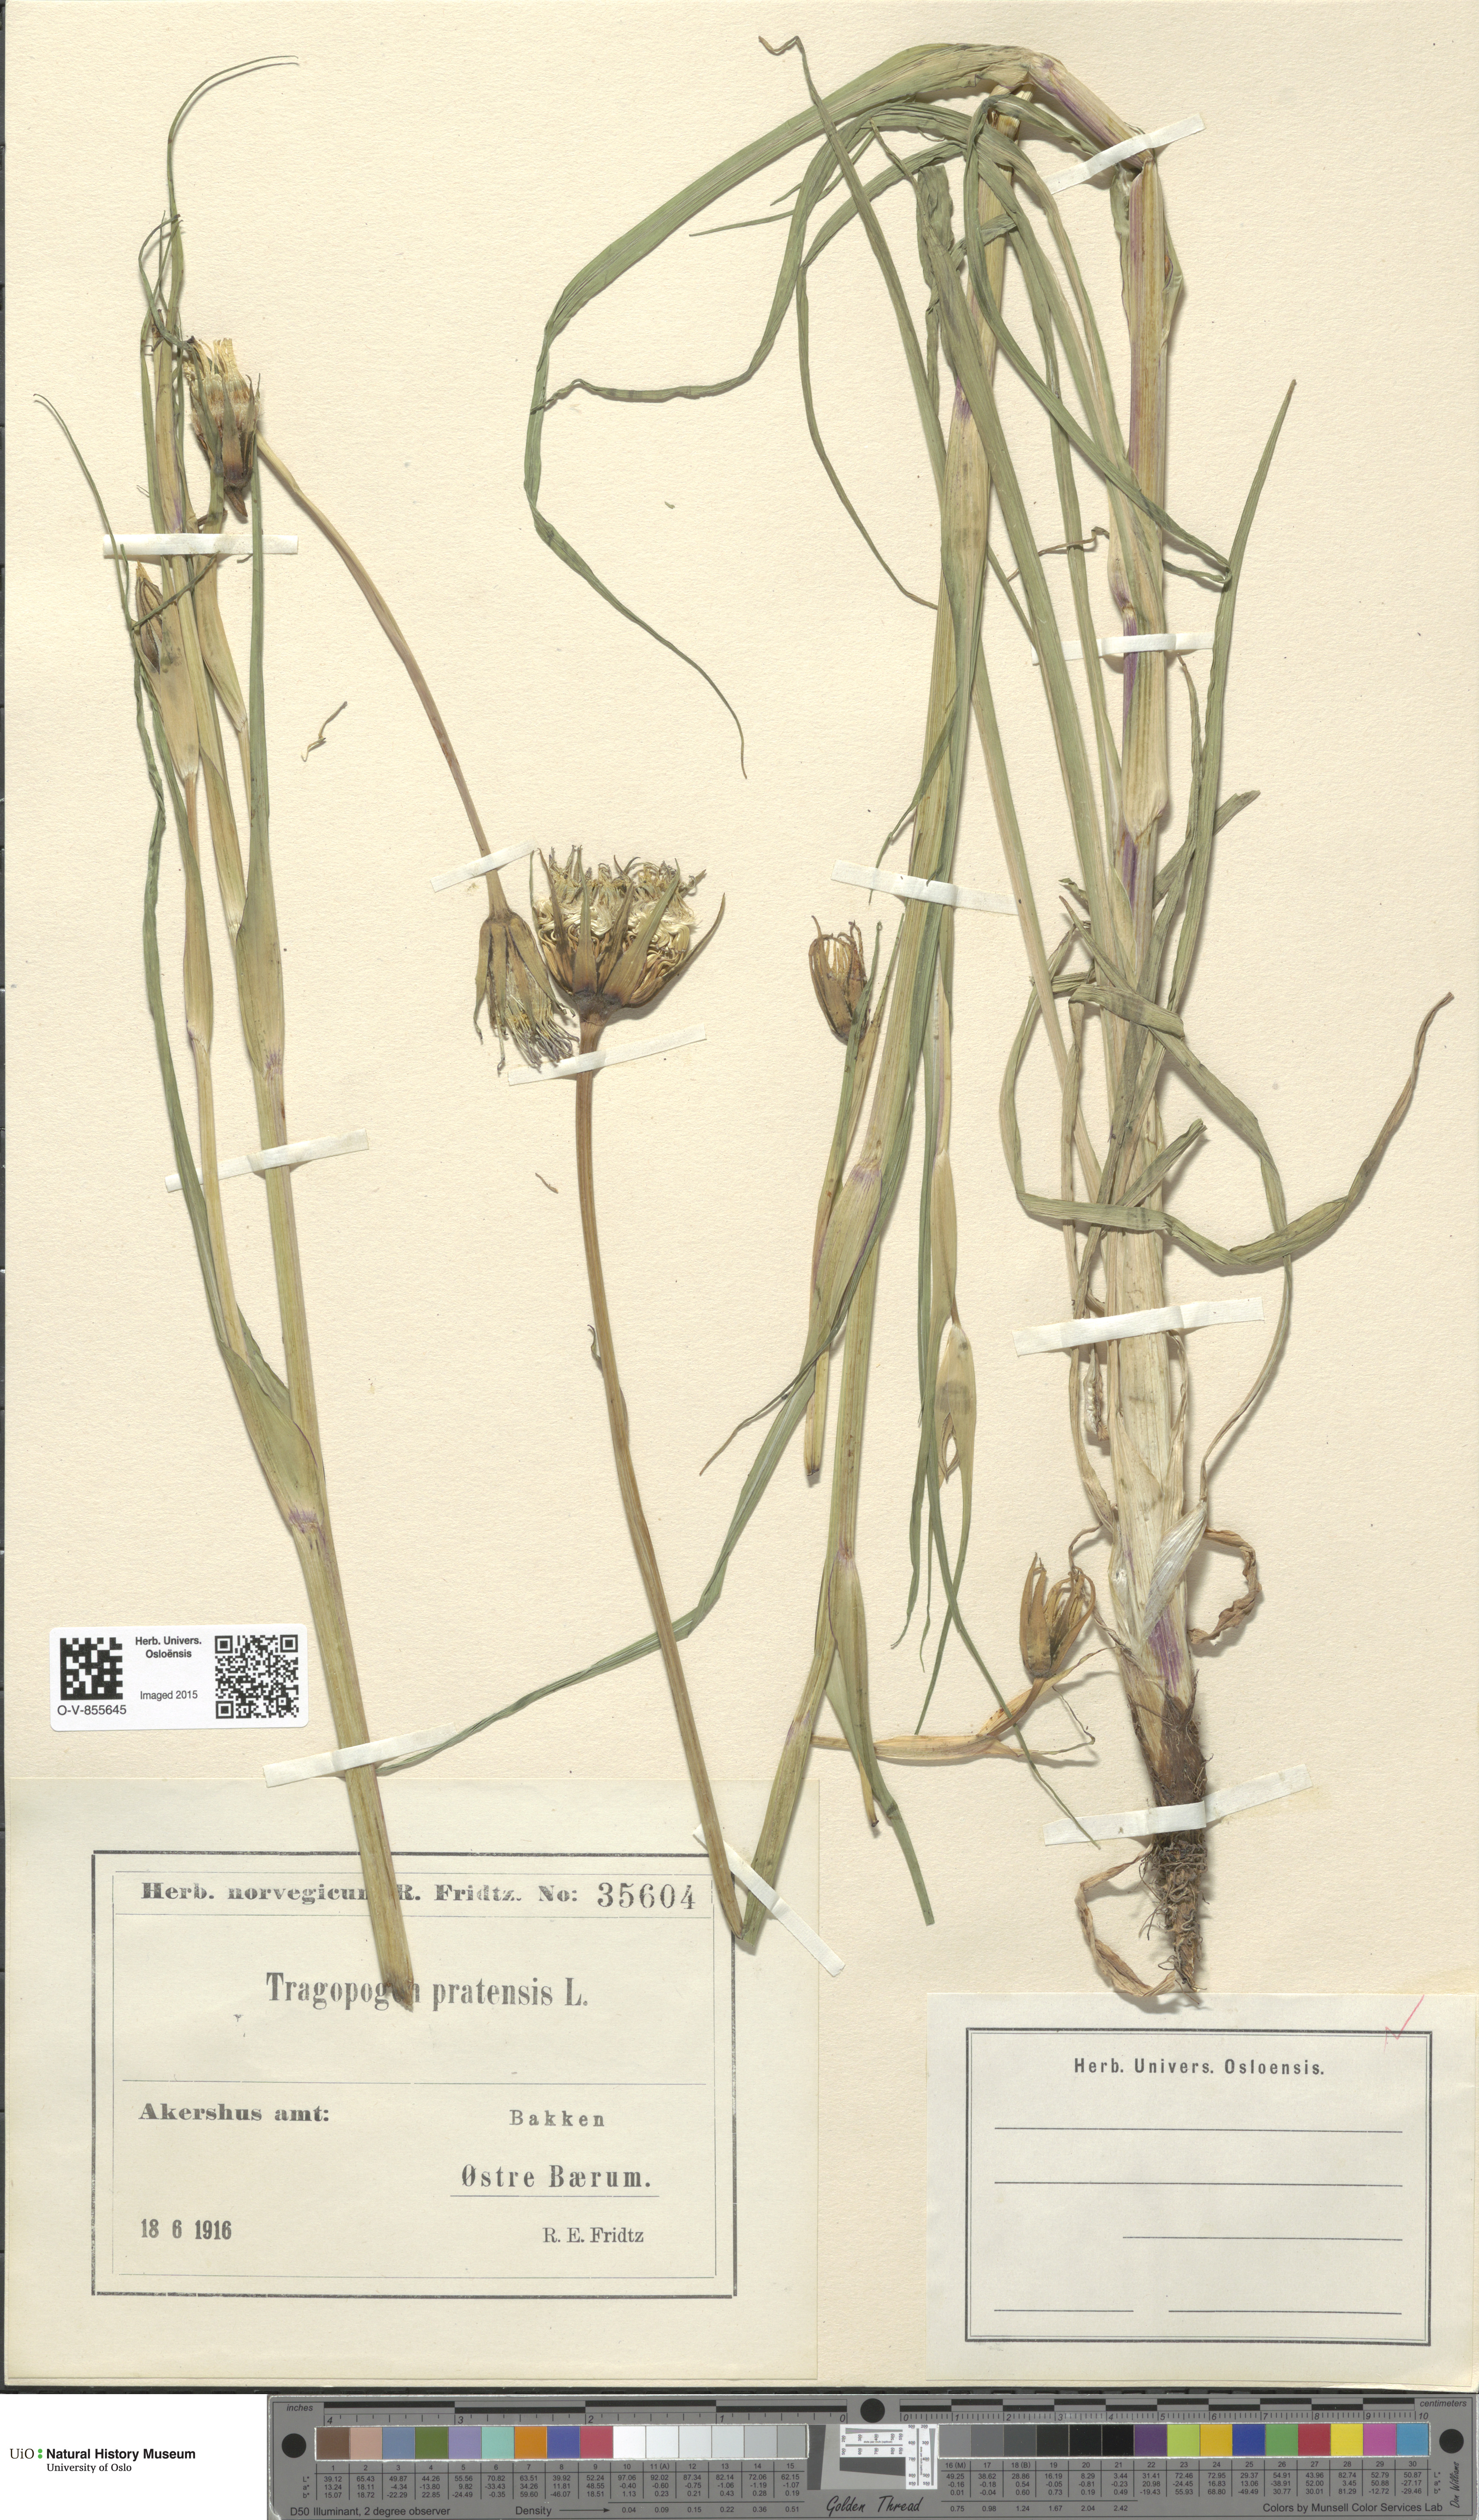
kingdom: Plantae
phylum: Tracheophyta
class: Magnoliopsida
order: Asterales
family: Asteraceae
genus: Tragopogon
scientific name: Tragopogon pratensis
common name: Goat's-beard
